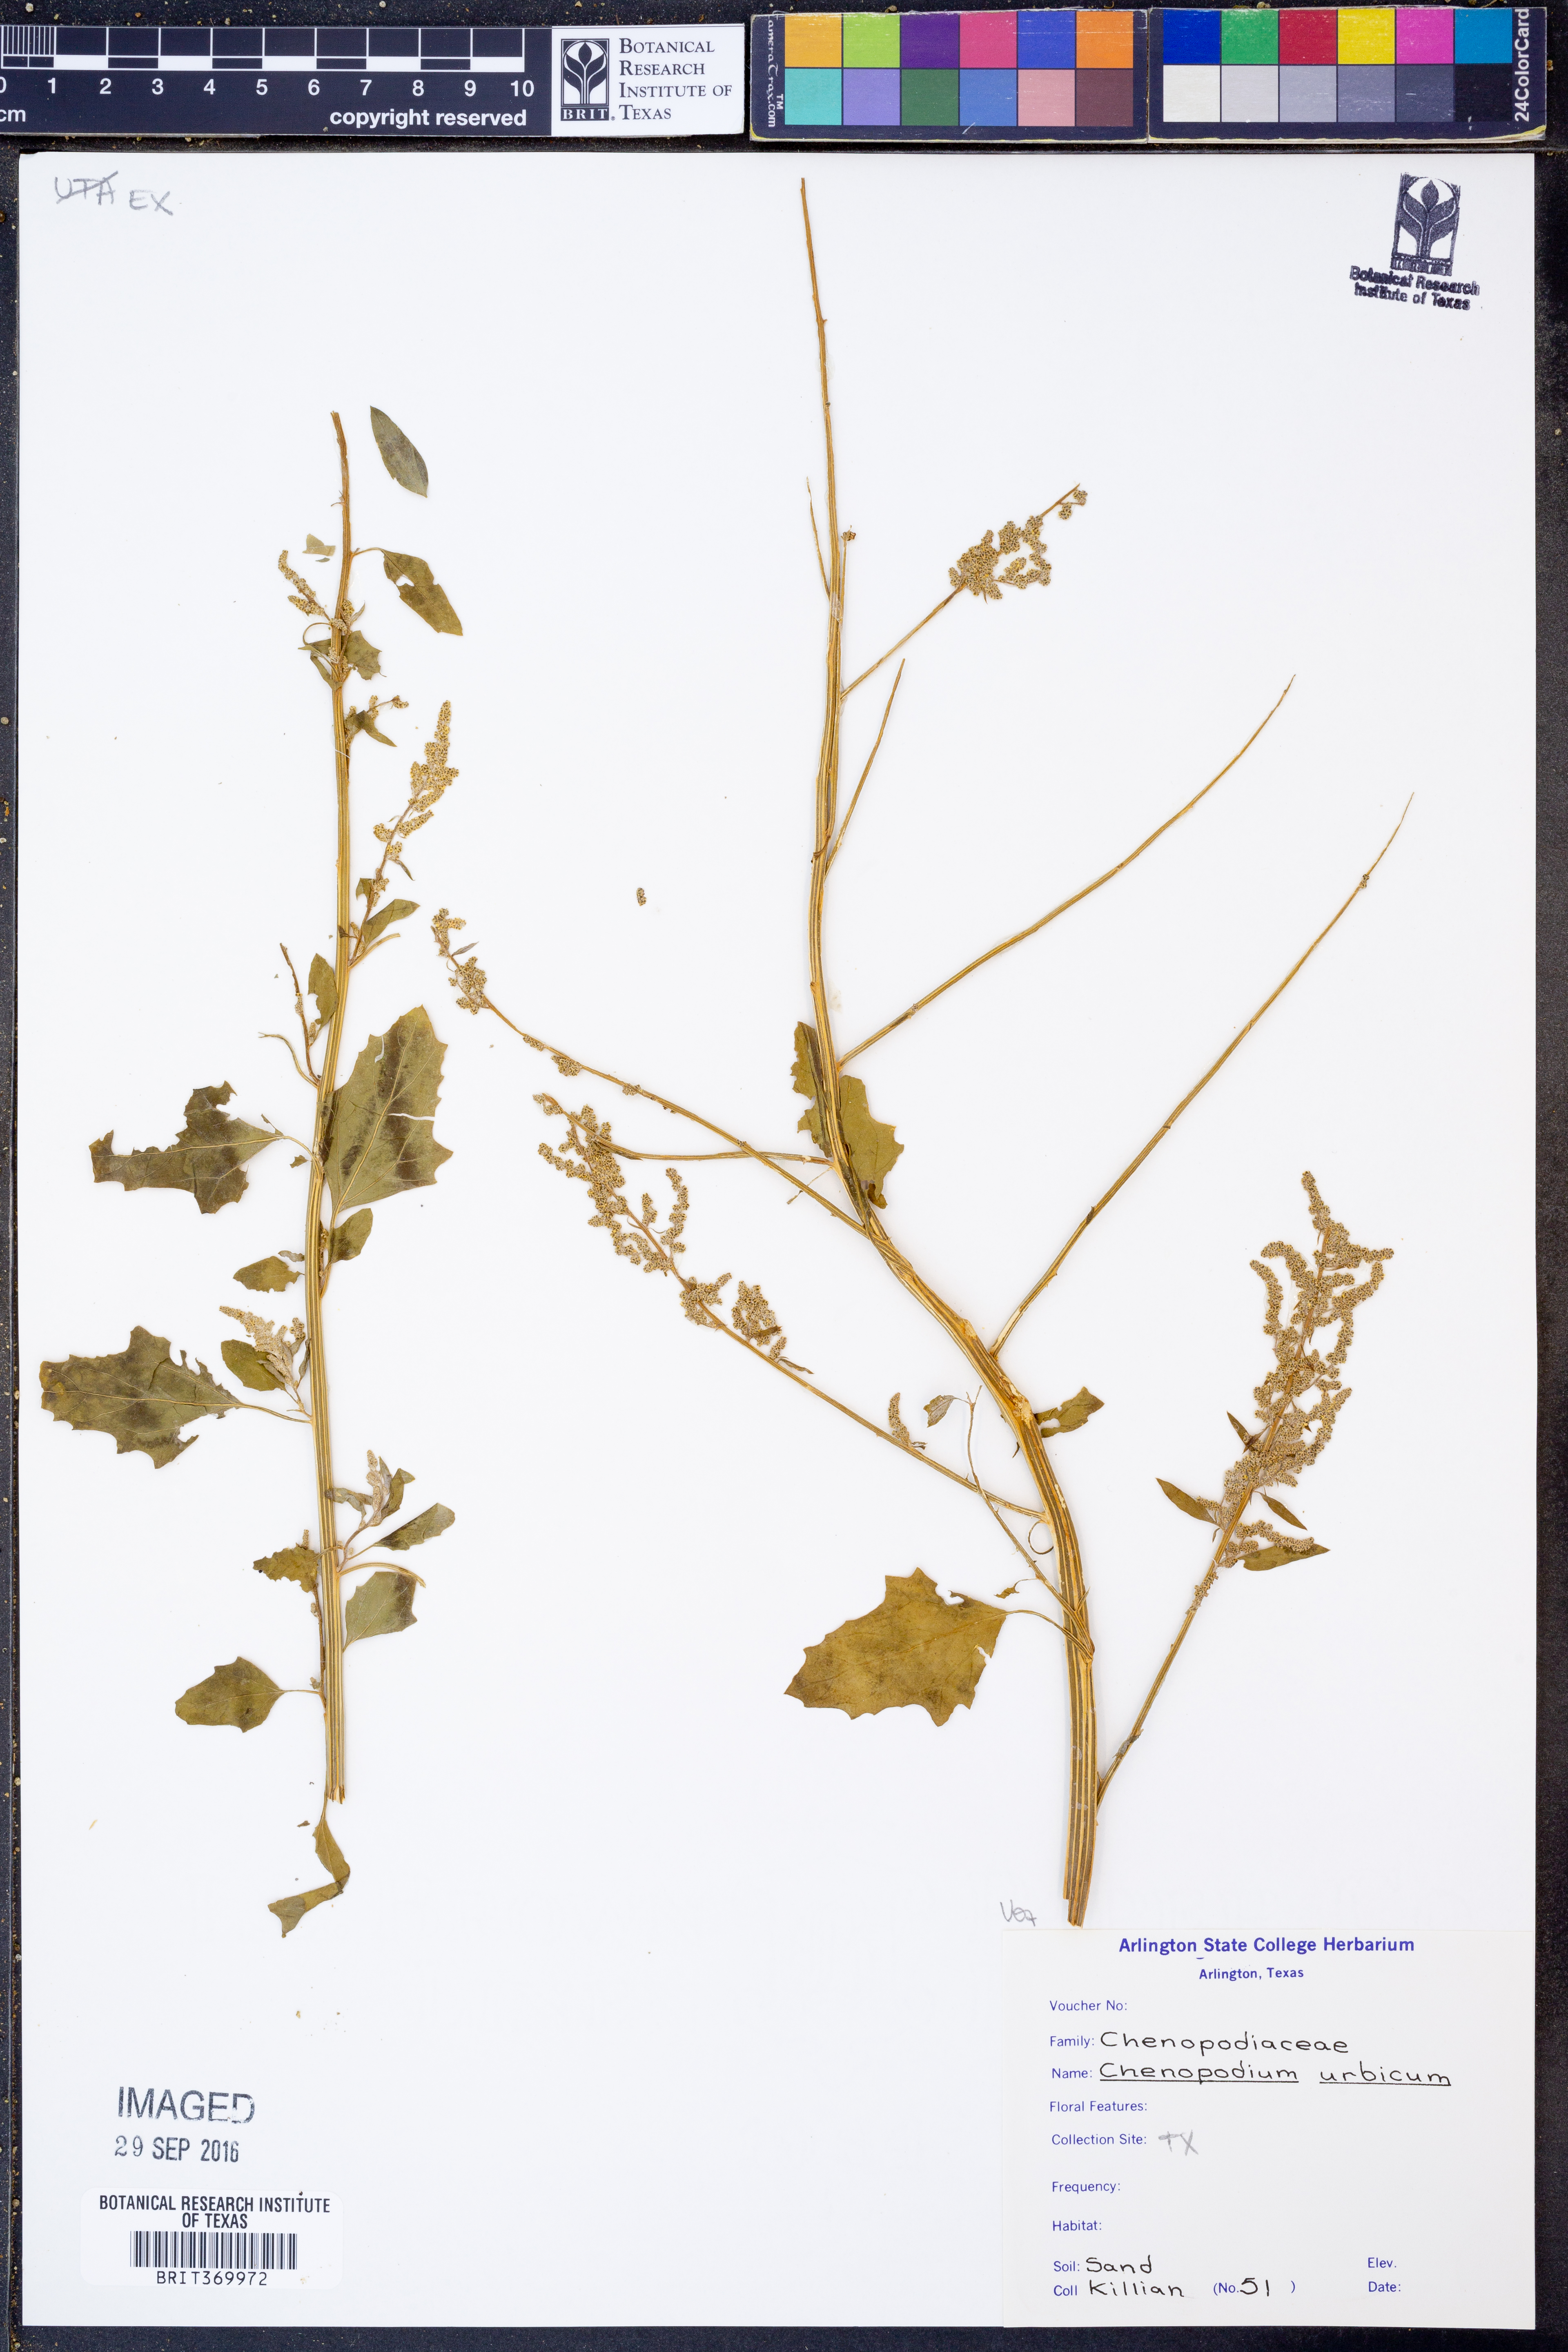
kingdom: Plantae
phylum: Tracheophyta
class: Magnoliopsida
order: Caryophyllales
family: Amaranthaceae
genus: Oxybasis
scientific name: Oxybasis urbica
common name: City goosefoot
